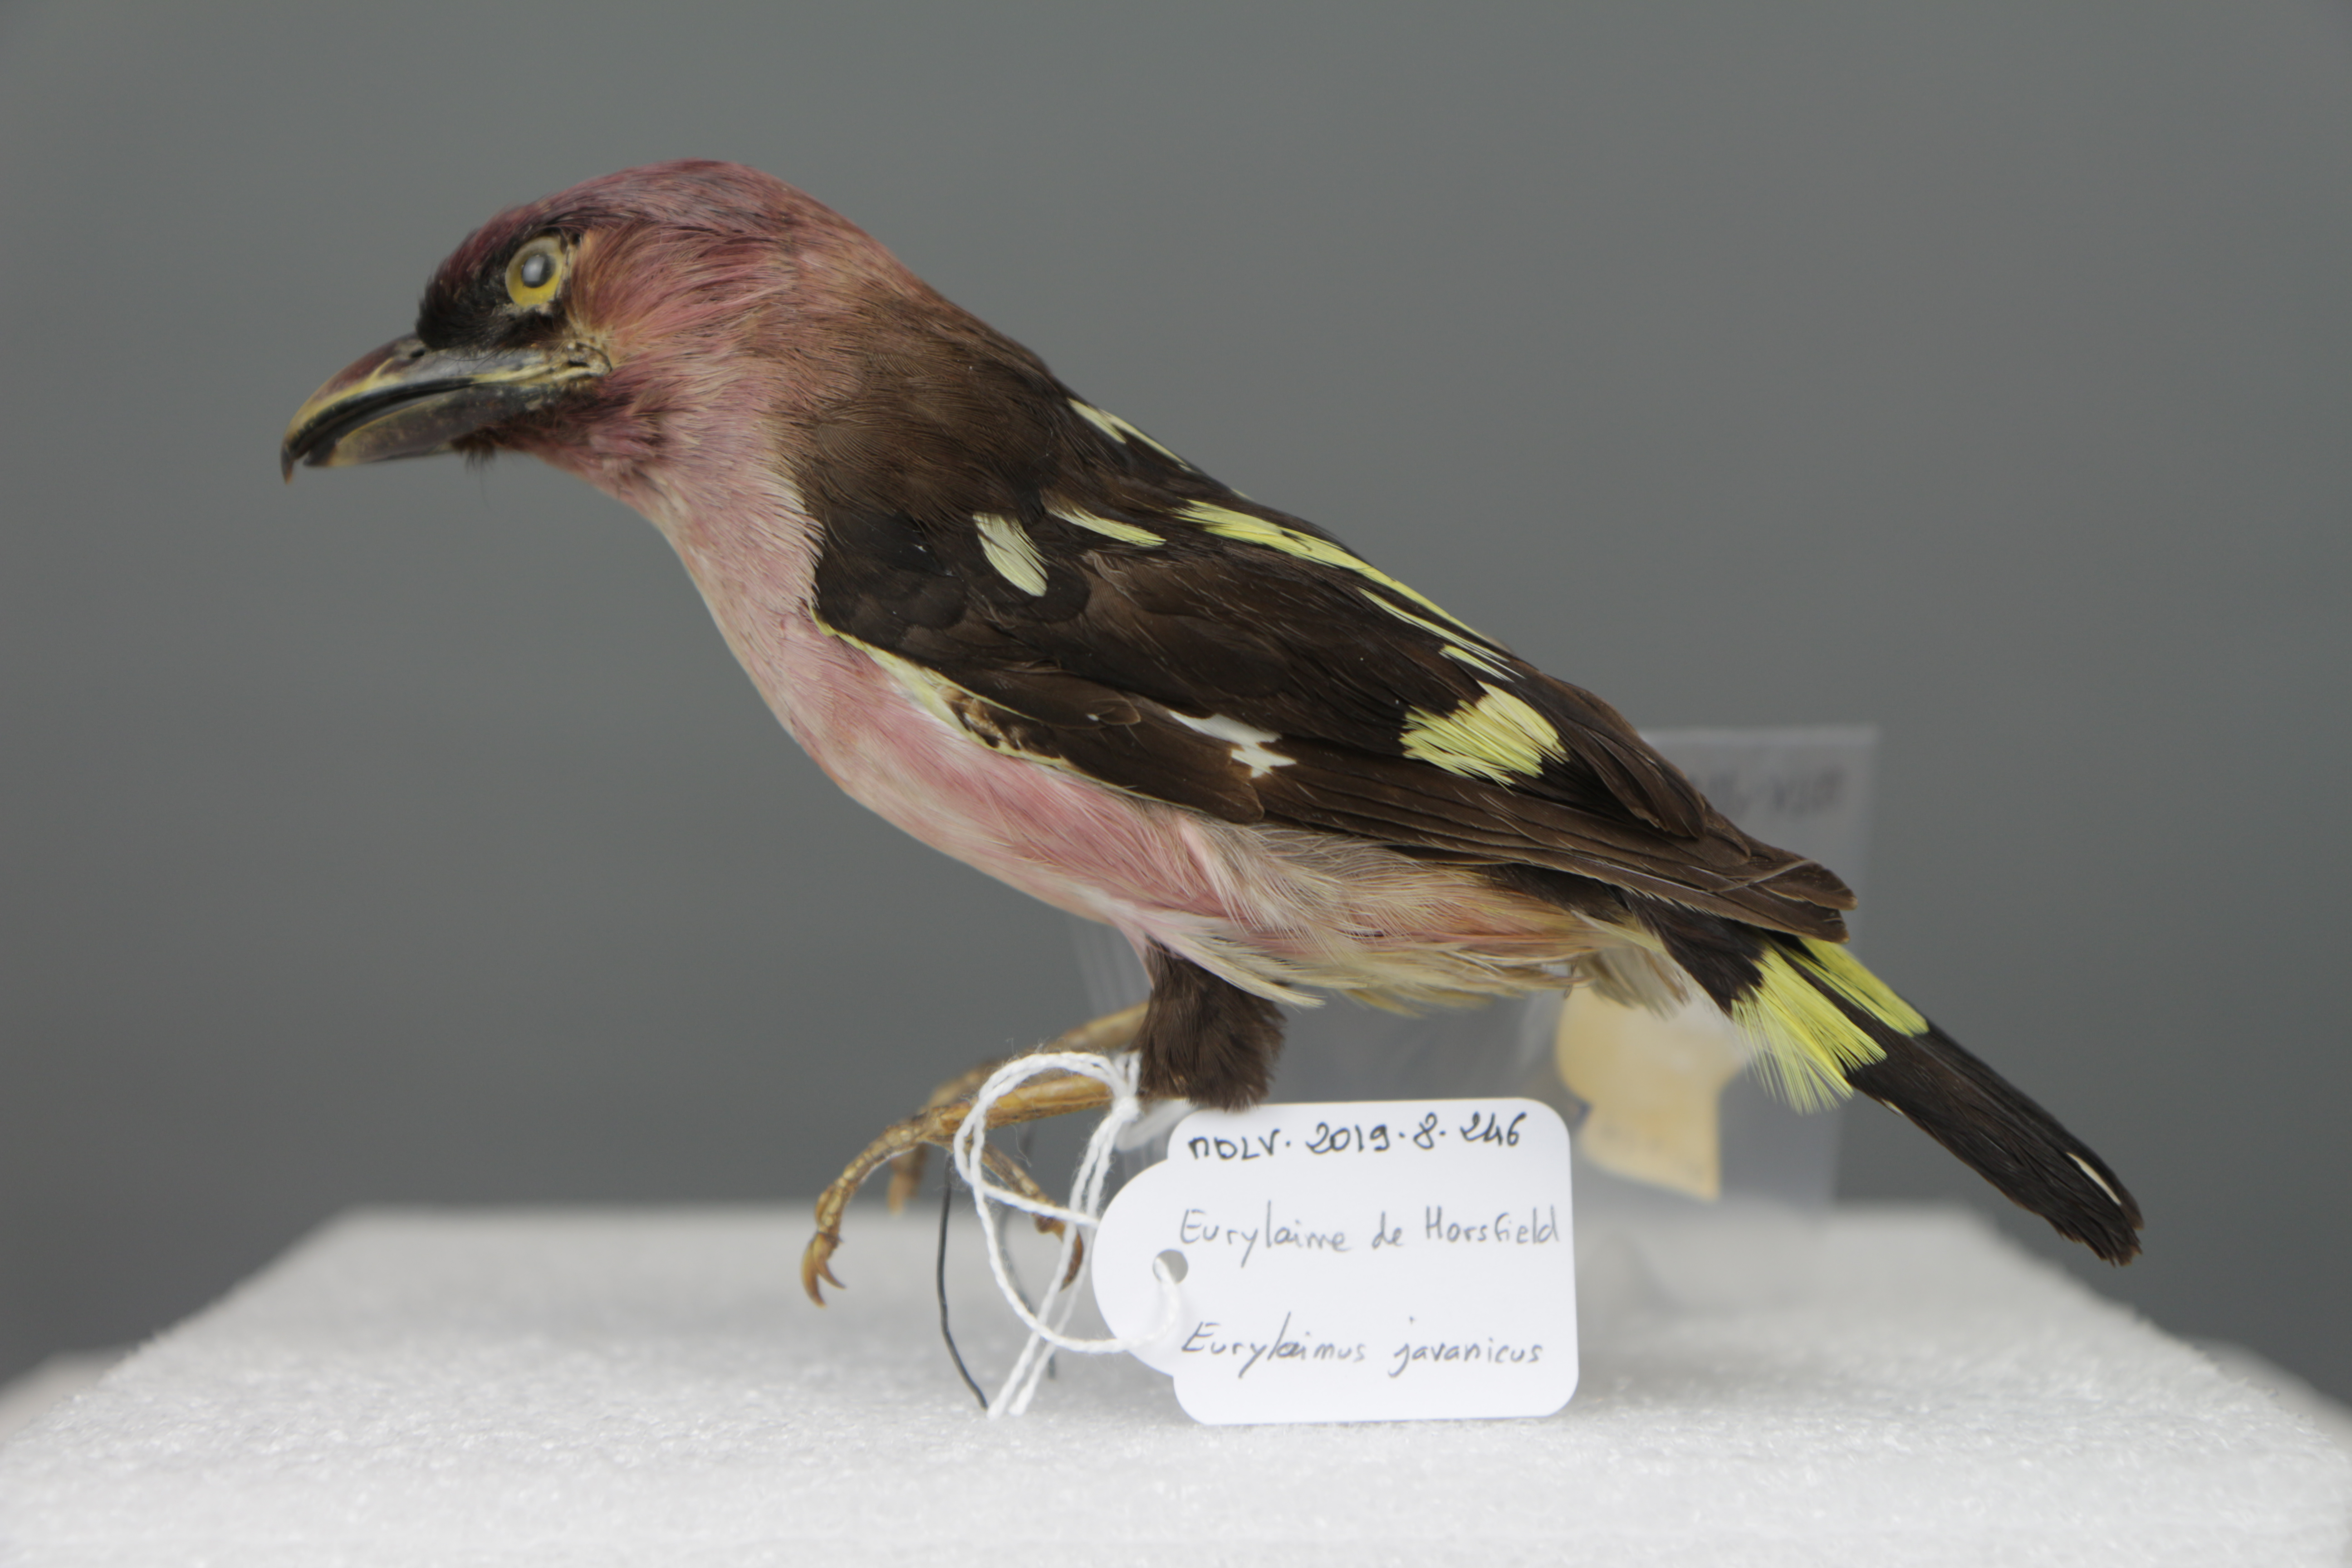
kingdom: Animalia
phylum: Chordata
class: Aves
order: Passeriformes
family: Eurylaimidae
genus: Eurylaimus
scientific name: Eurylaimus javanicus
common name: Banded broadbill
